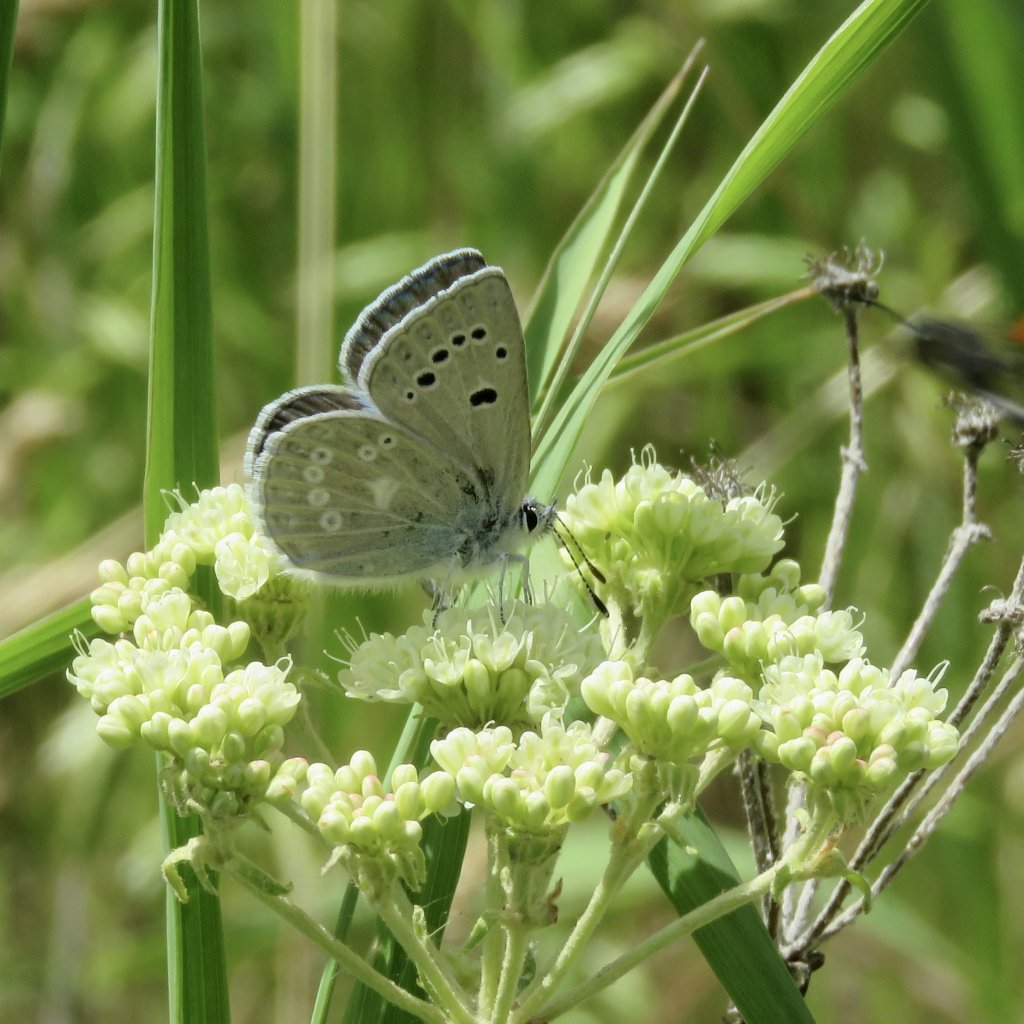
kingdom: Animalia
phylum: Arthropoda
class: Insecta
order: Lepidoptera
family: Lycaenidae
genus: Icaricia
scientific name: Icaricia icarioides
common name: Boisduval's Blue
